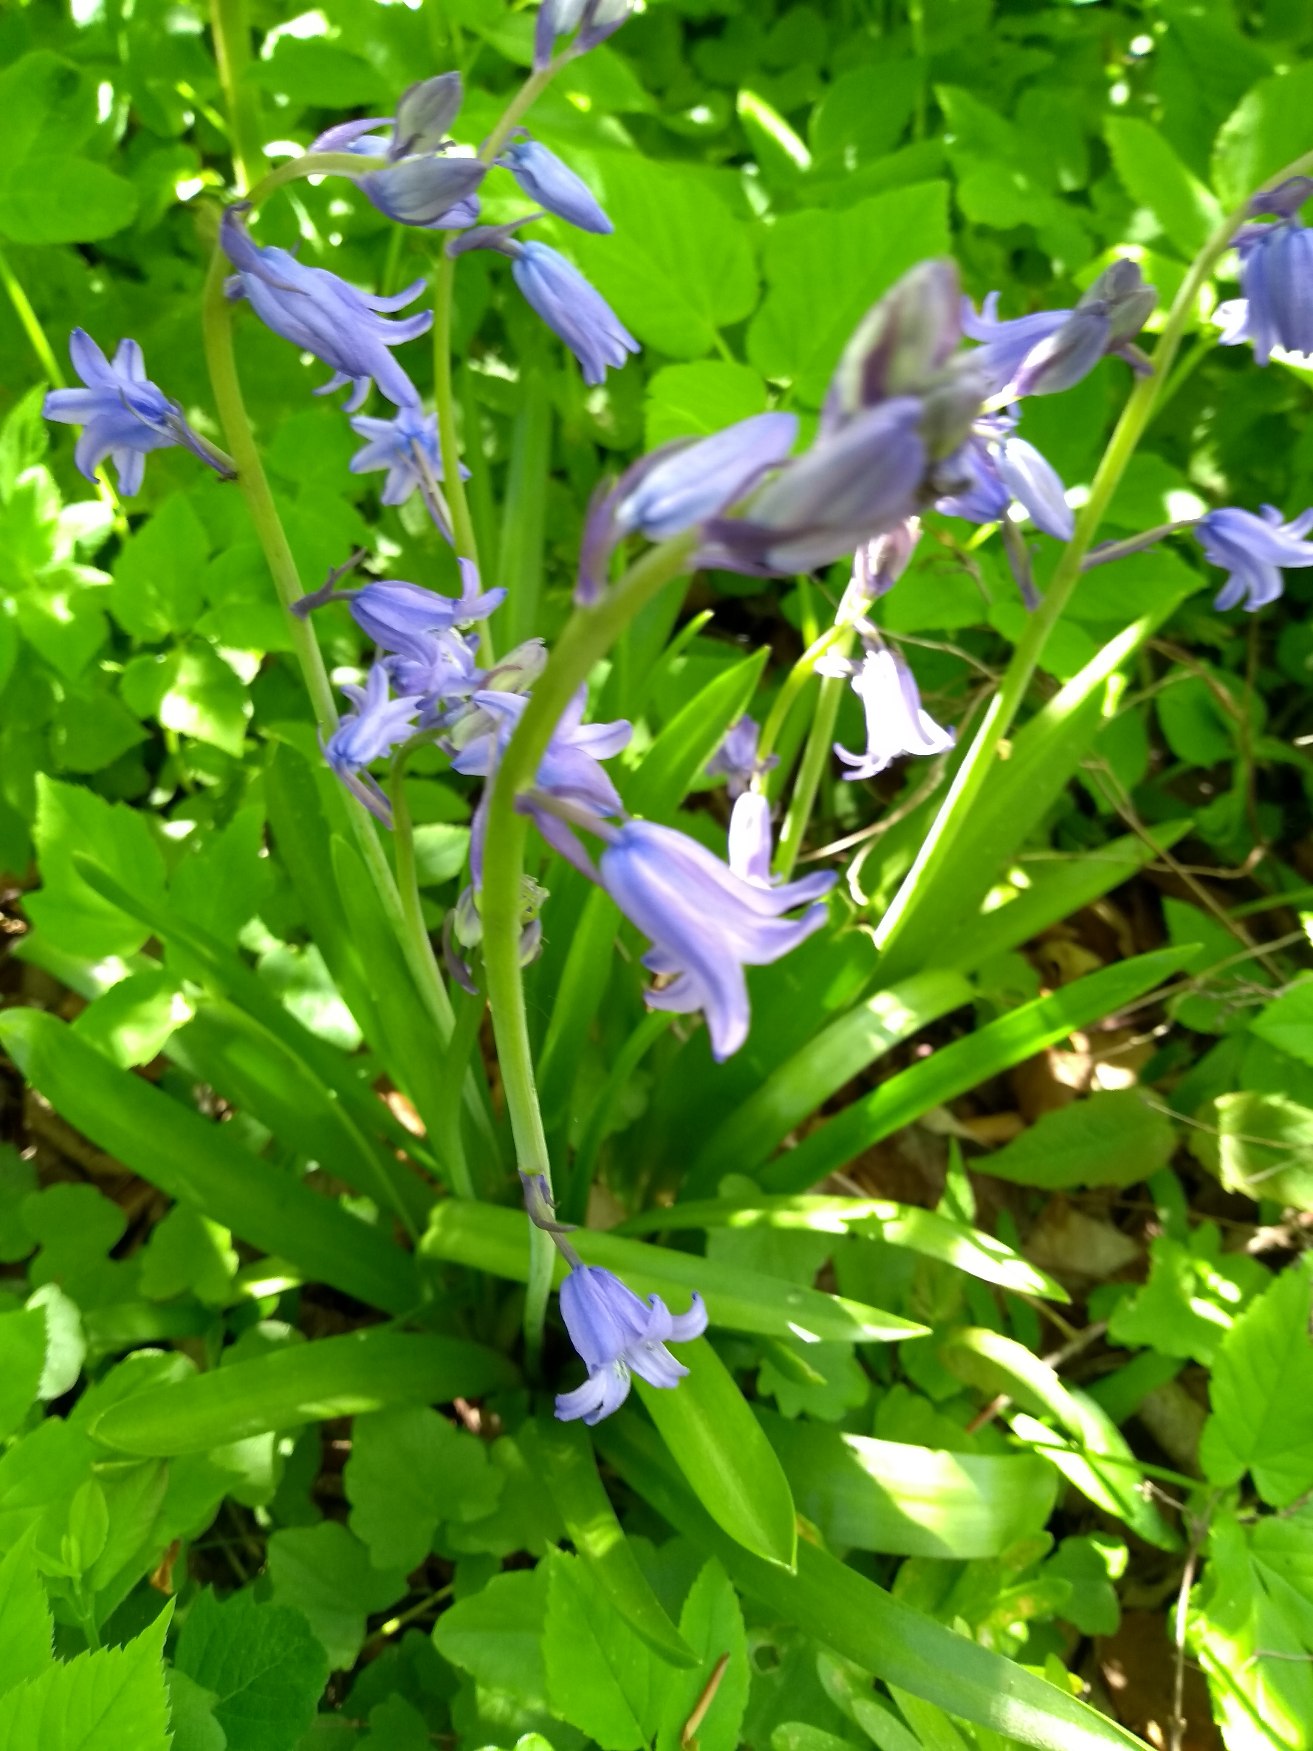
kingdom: Plantae
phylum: Tracheophyta
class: Liliopsida
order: Asparagales
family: Asparagaceae
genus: Hyacinthoides
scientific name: Hyacinthoides massartiana
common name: Hybrid-klokkeskilla
